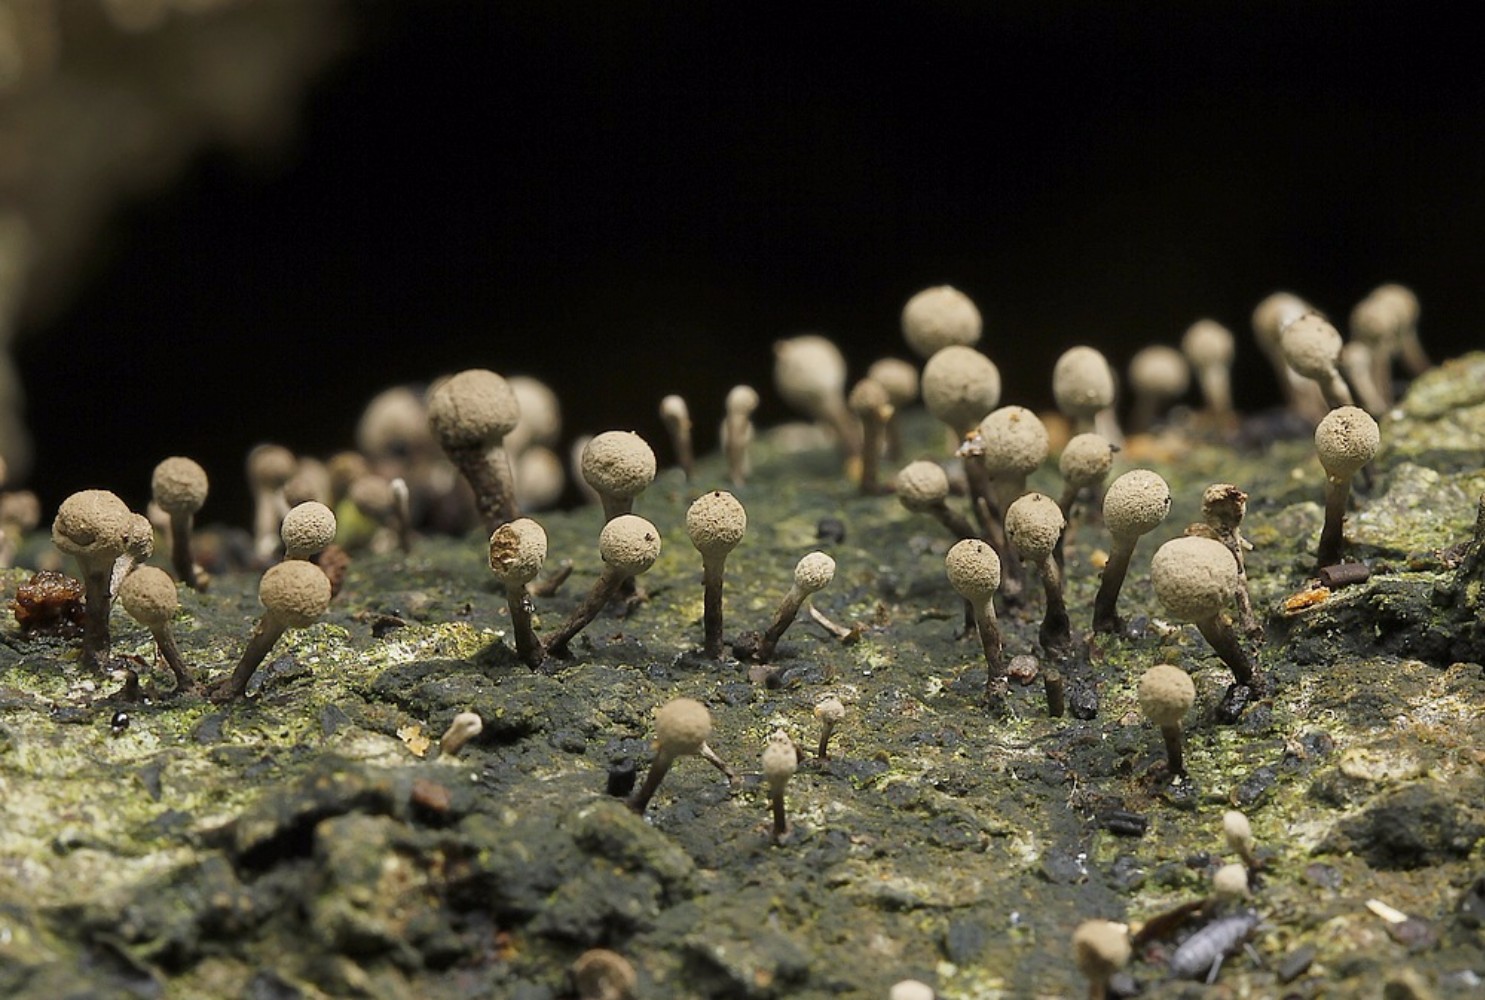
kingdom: Fungi
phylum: Basidiomycota
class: Atractiellomycetes
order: Atractiellales
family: Phleogenaceae
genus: Phleogena
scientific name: Phleogena faginea
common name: pudderkølle
